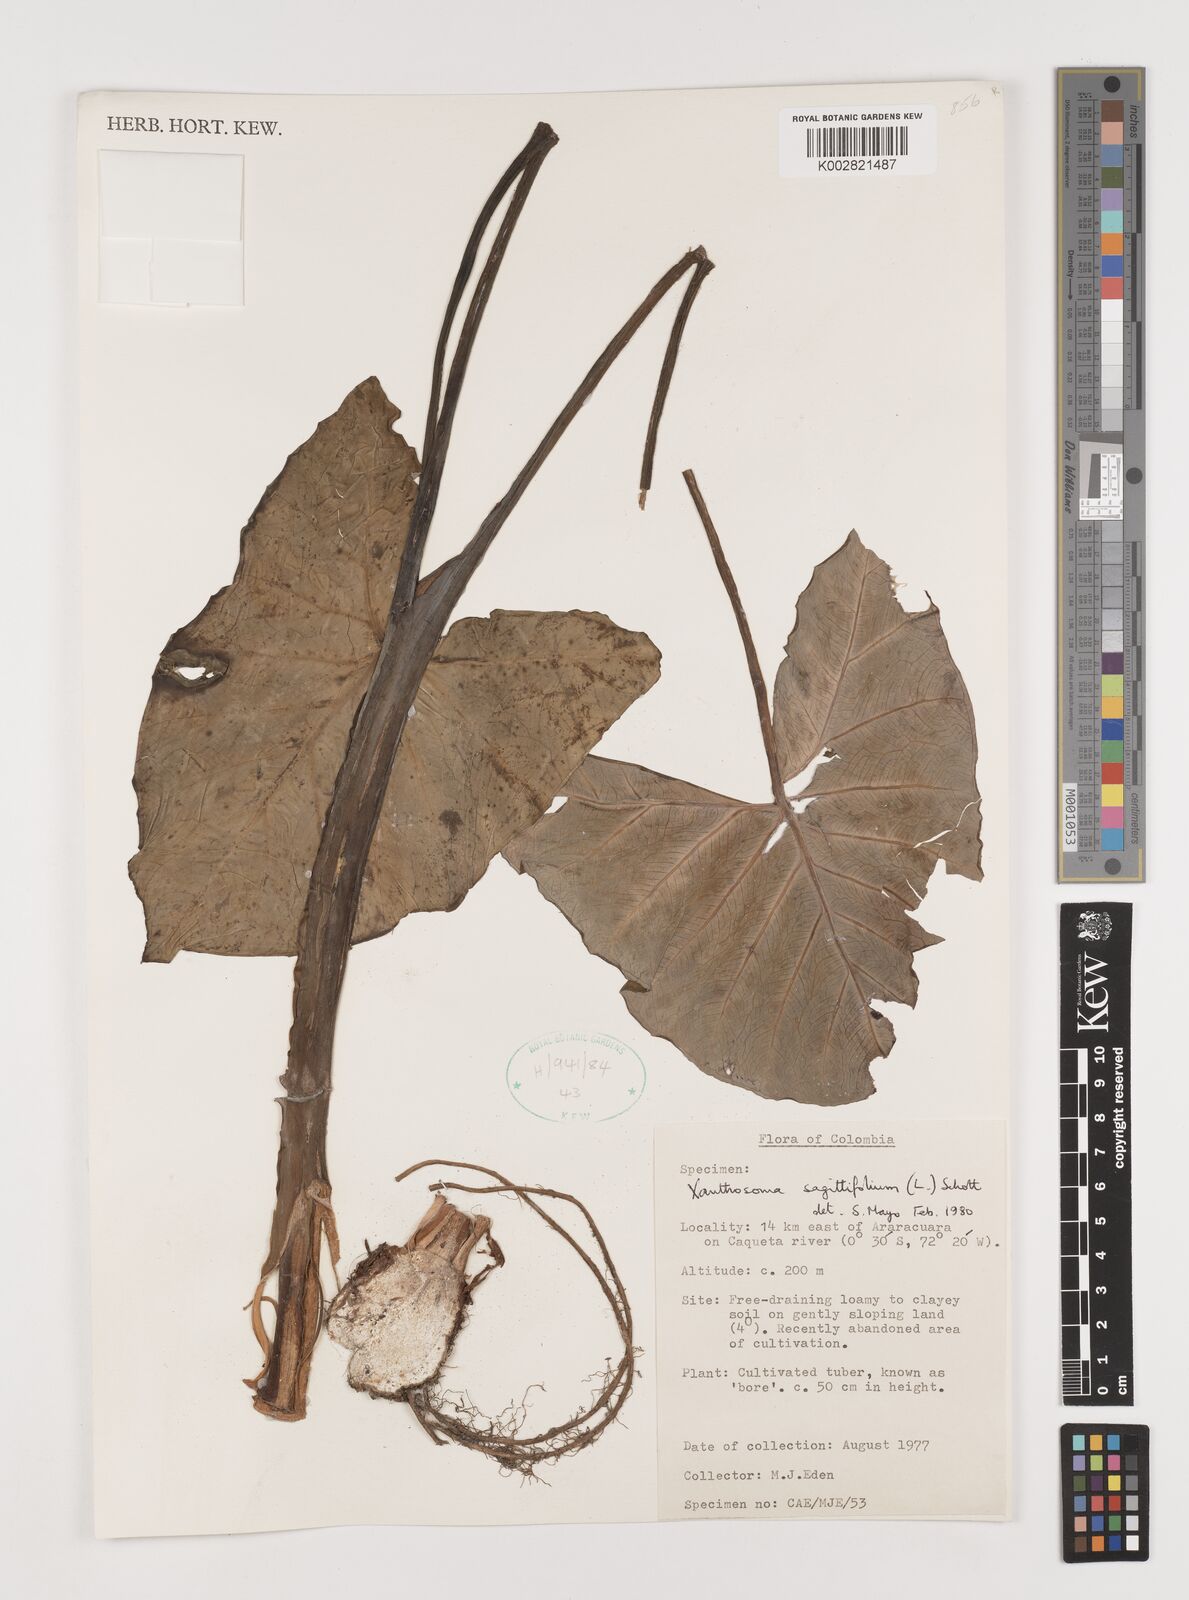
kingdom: Plantae
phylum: Tracheophyta
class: Liliopsida
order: Alismatales
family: Araceae
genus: Xanthosoma
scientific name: Xanthosoma sagittifolium
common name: Arrowleaf elephant's ear
